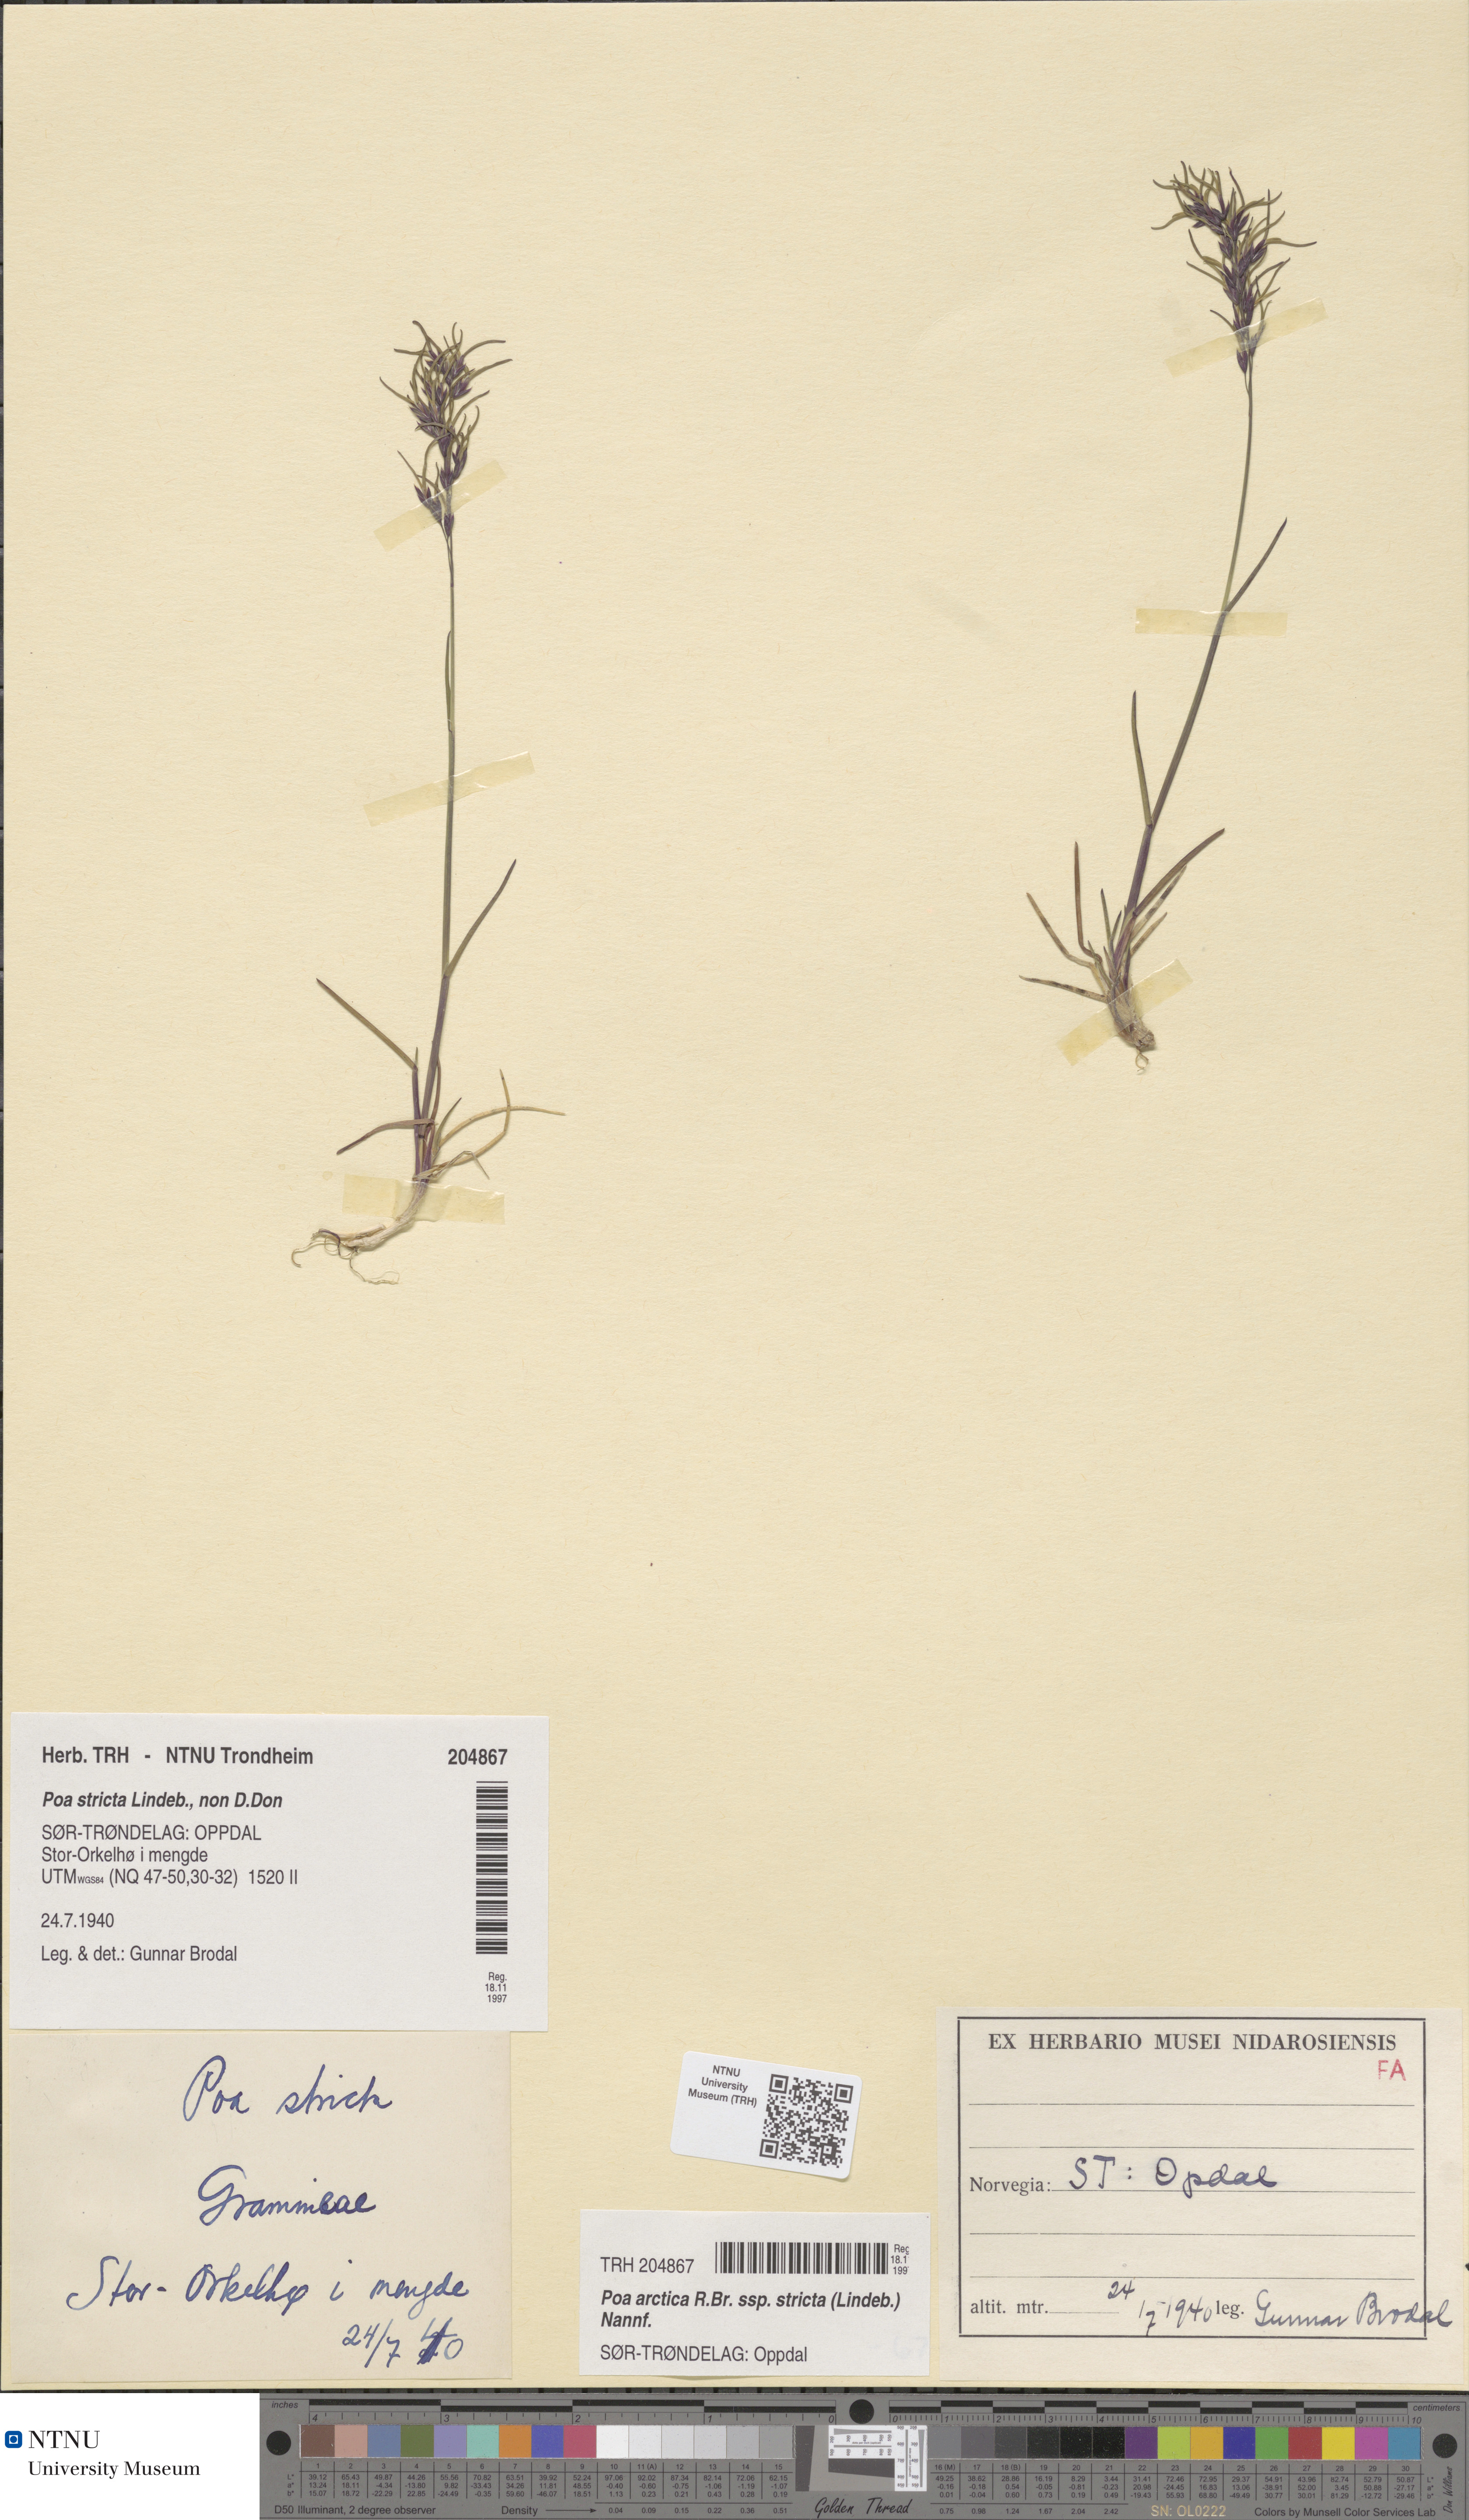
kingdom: Plantae
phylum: Tracheophyta
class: Liliopsida
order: Poales
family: Poaceae
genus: Poa
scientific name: Poa lindebergii
